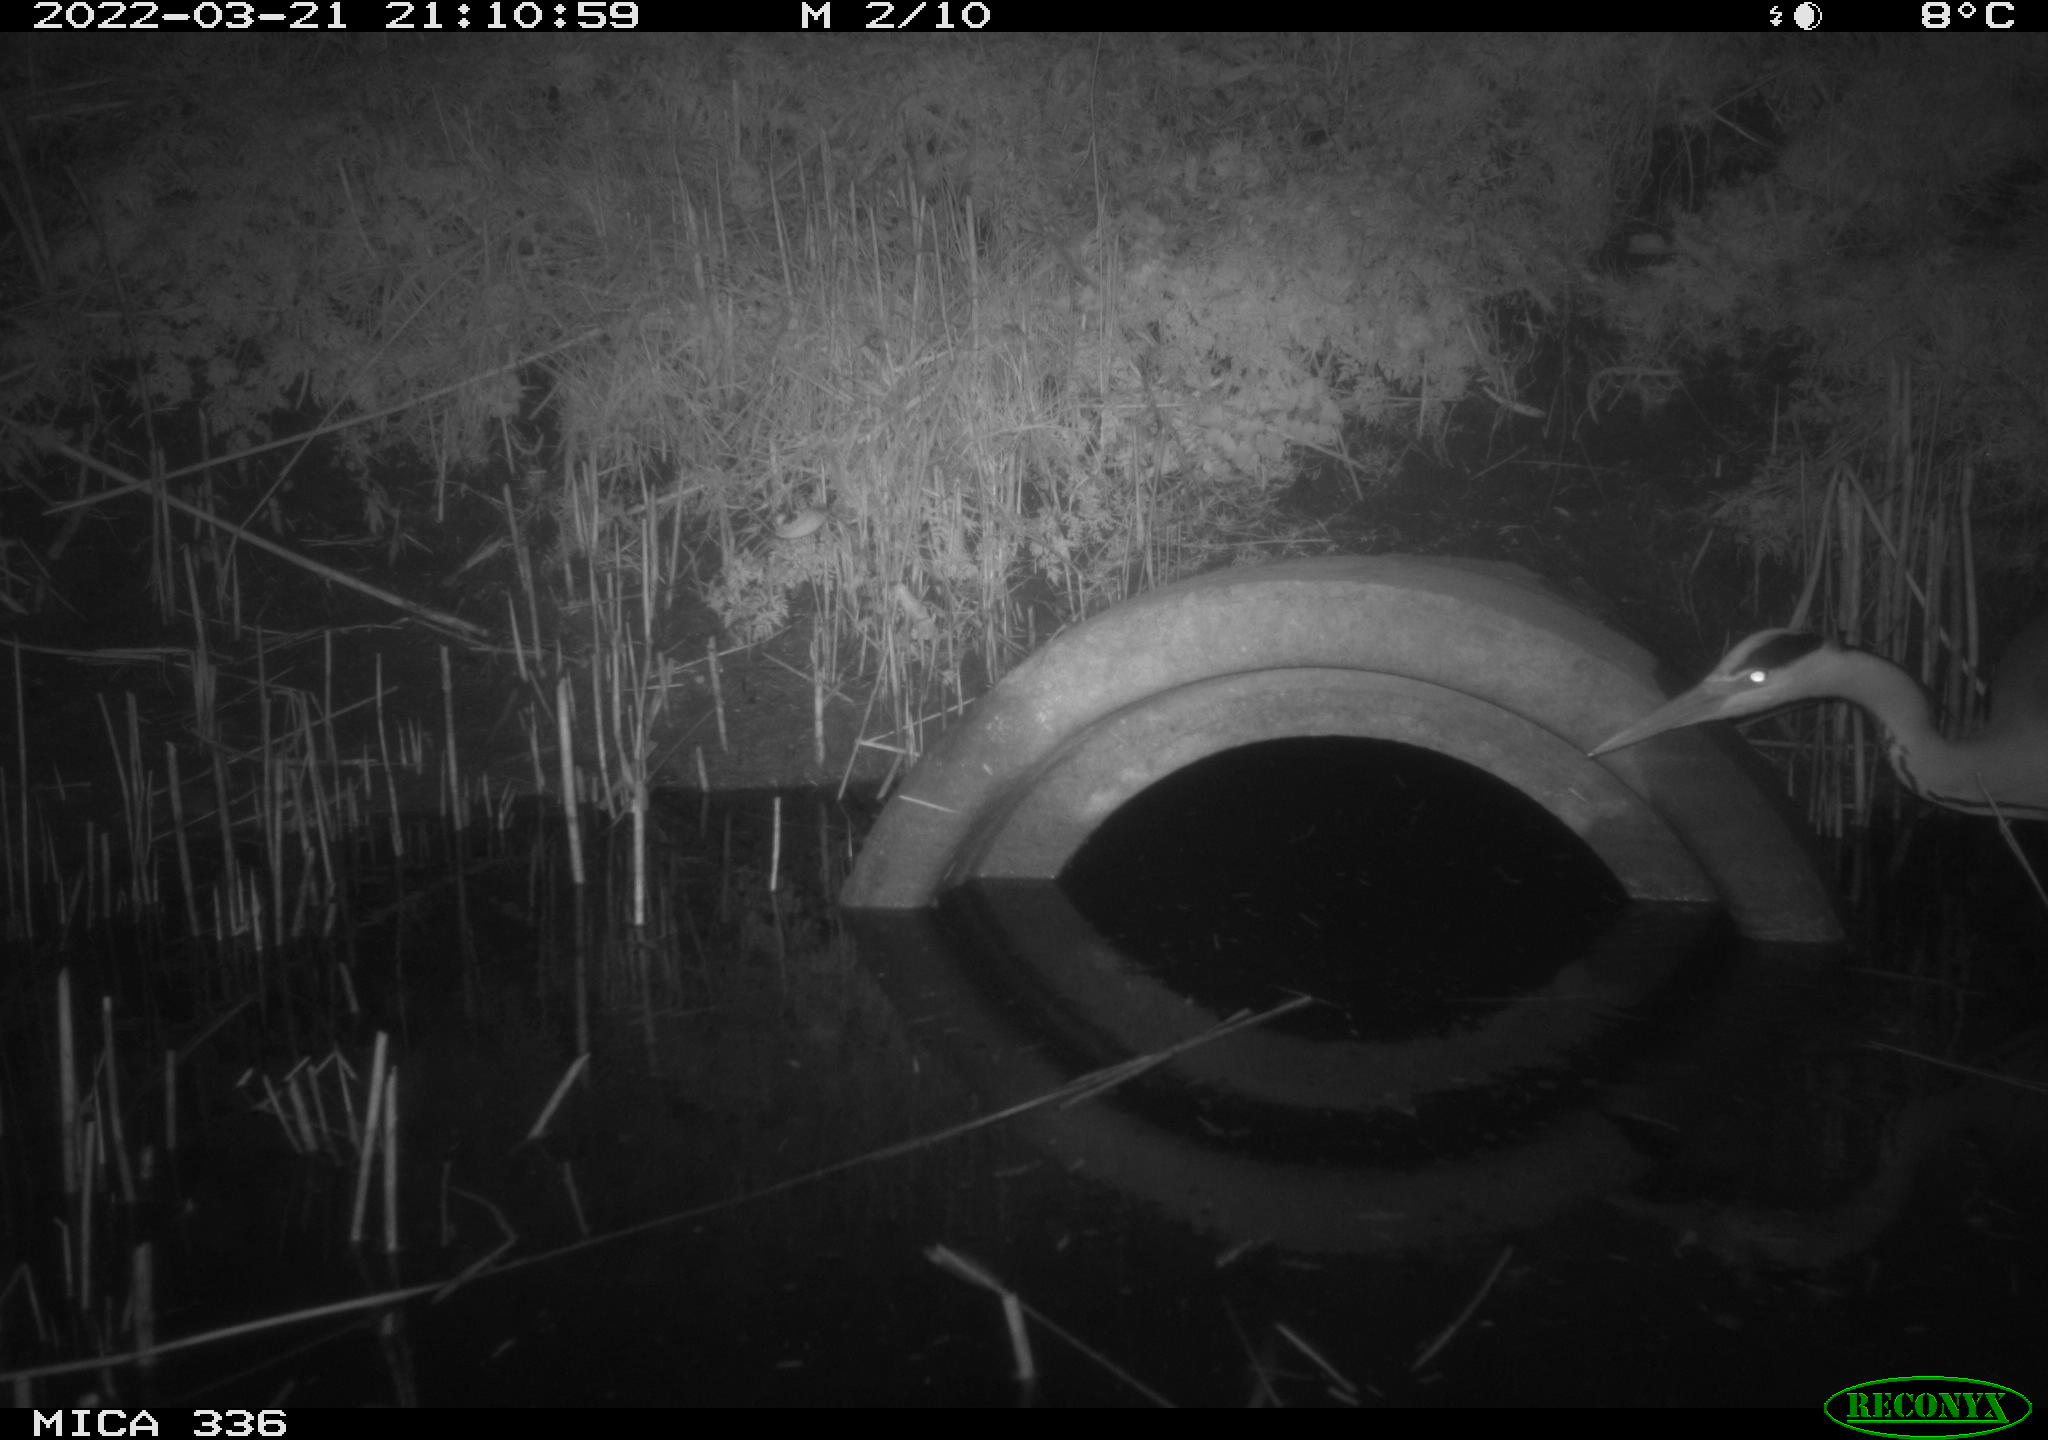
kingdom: Animalia
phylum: Chordata
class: Aves
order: Pelecaniformes
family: Ardeidae
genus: Ardea
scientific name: Ardea cinerea
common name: Grey heron
